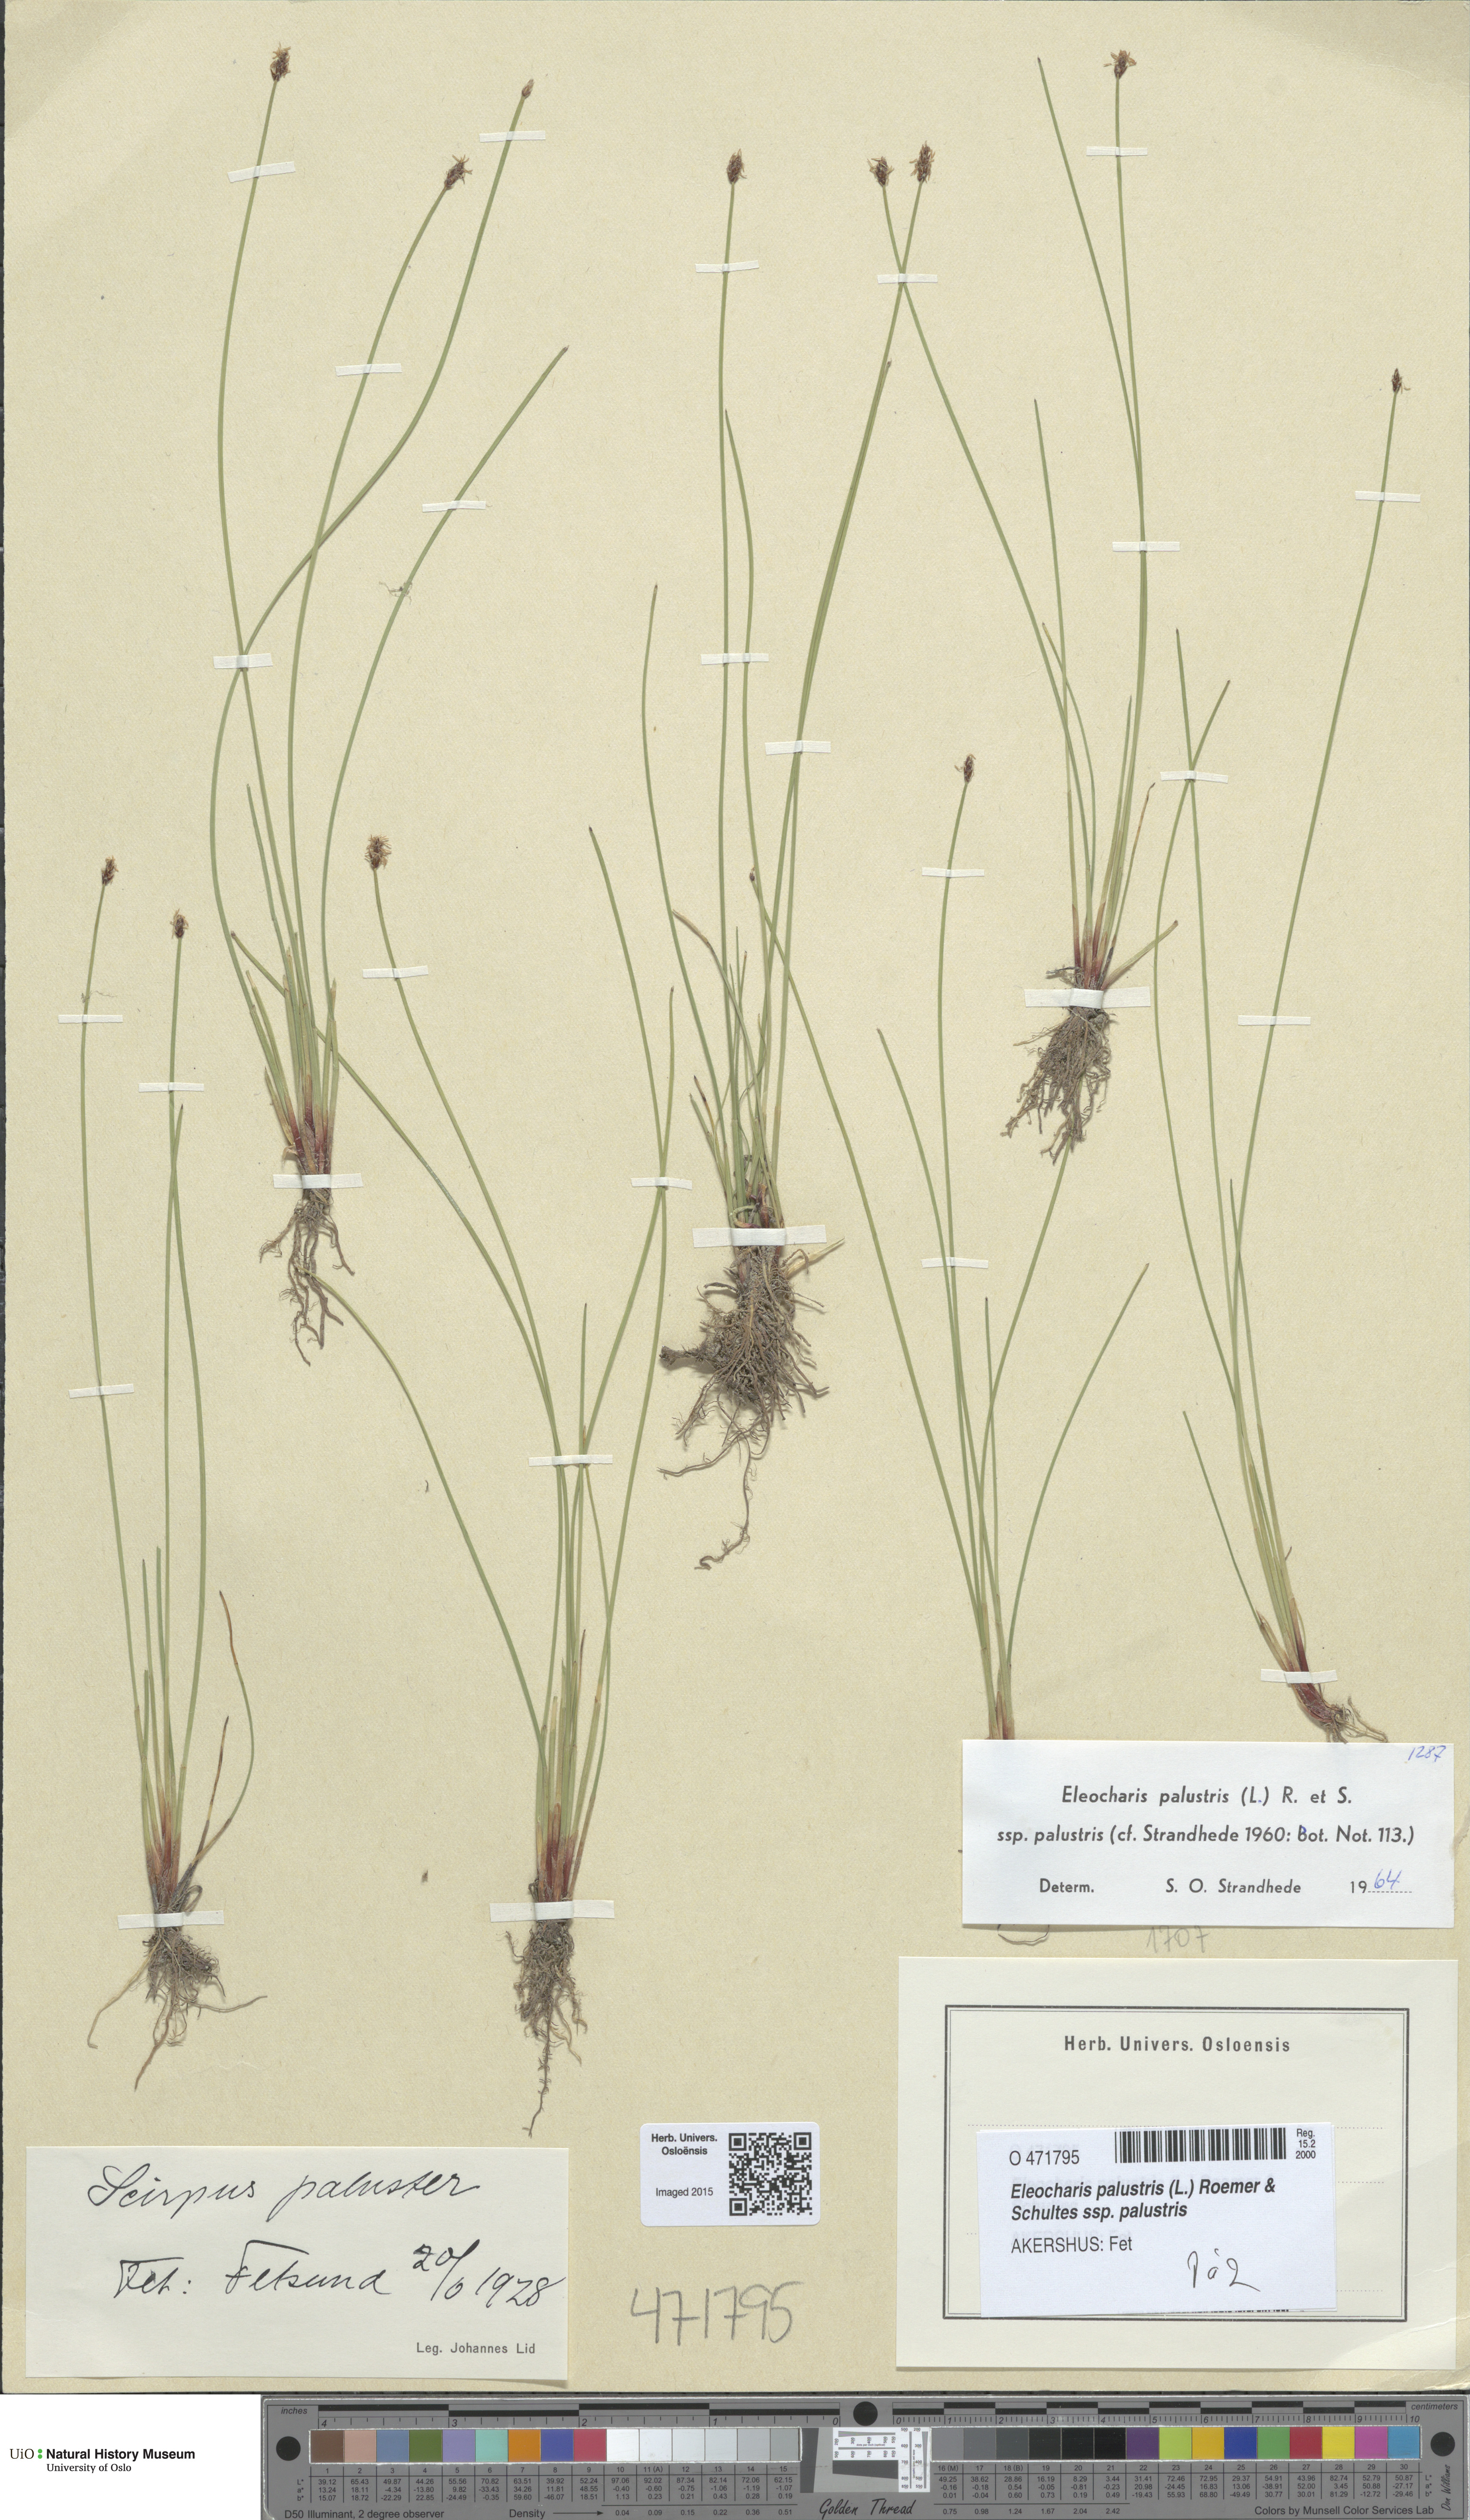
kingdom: Plantae
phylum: Tracheophyta
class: Liliopsida
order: Poales
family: Cyperaceae
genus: Eleocharis
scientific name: Eleocharis palustris
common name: Common spike-rush
